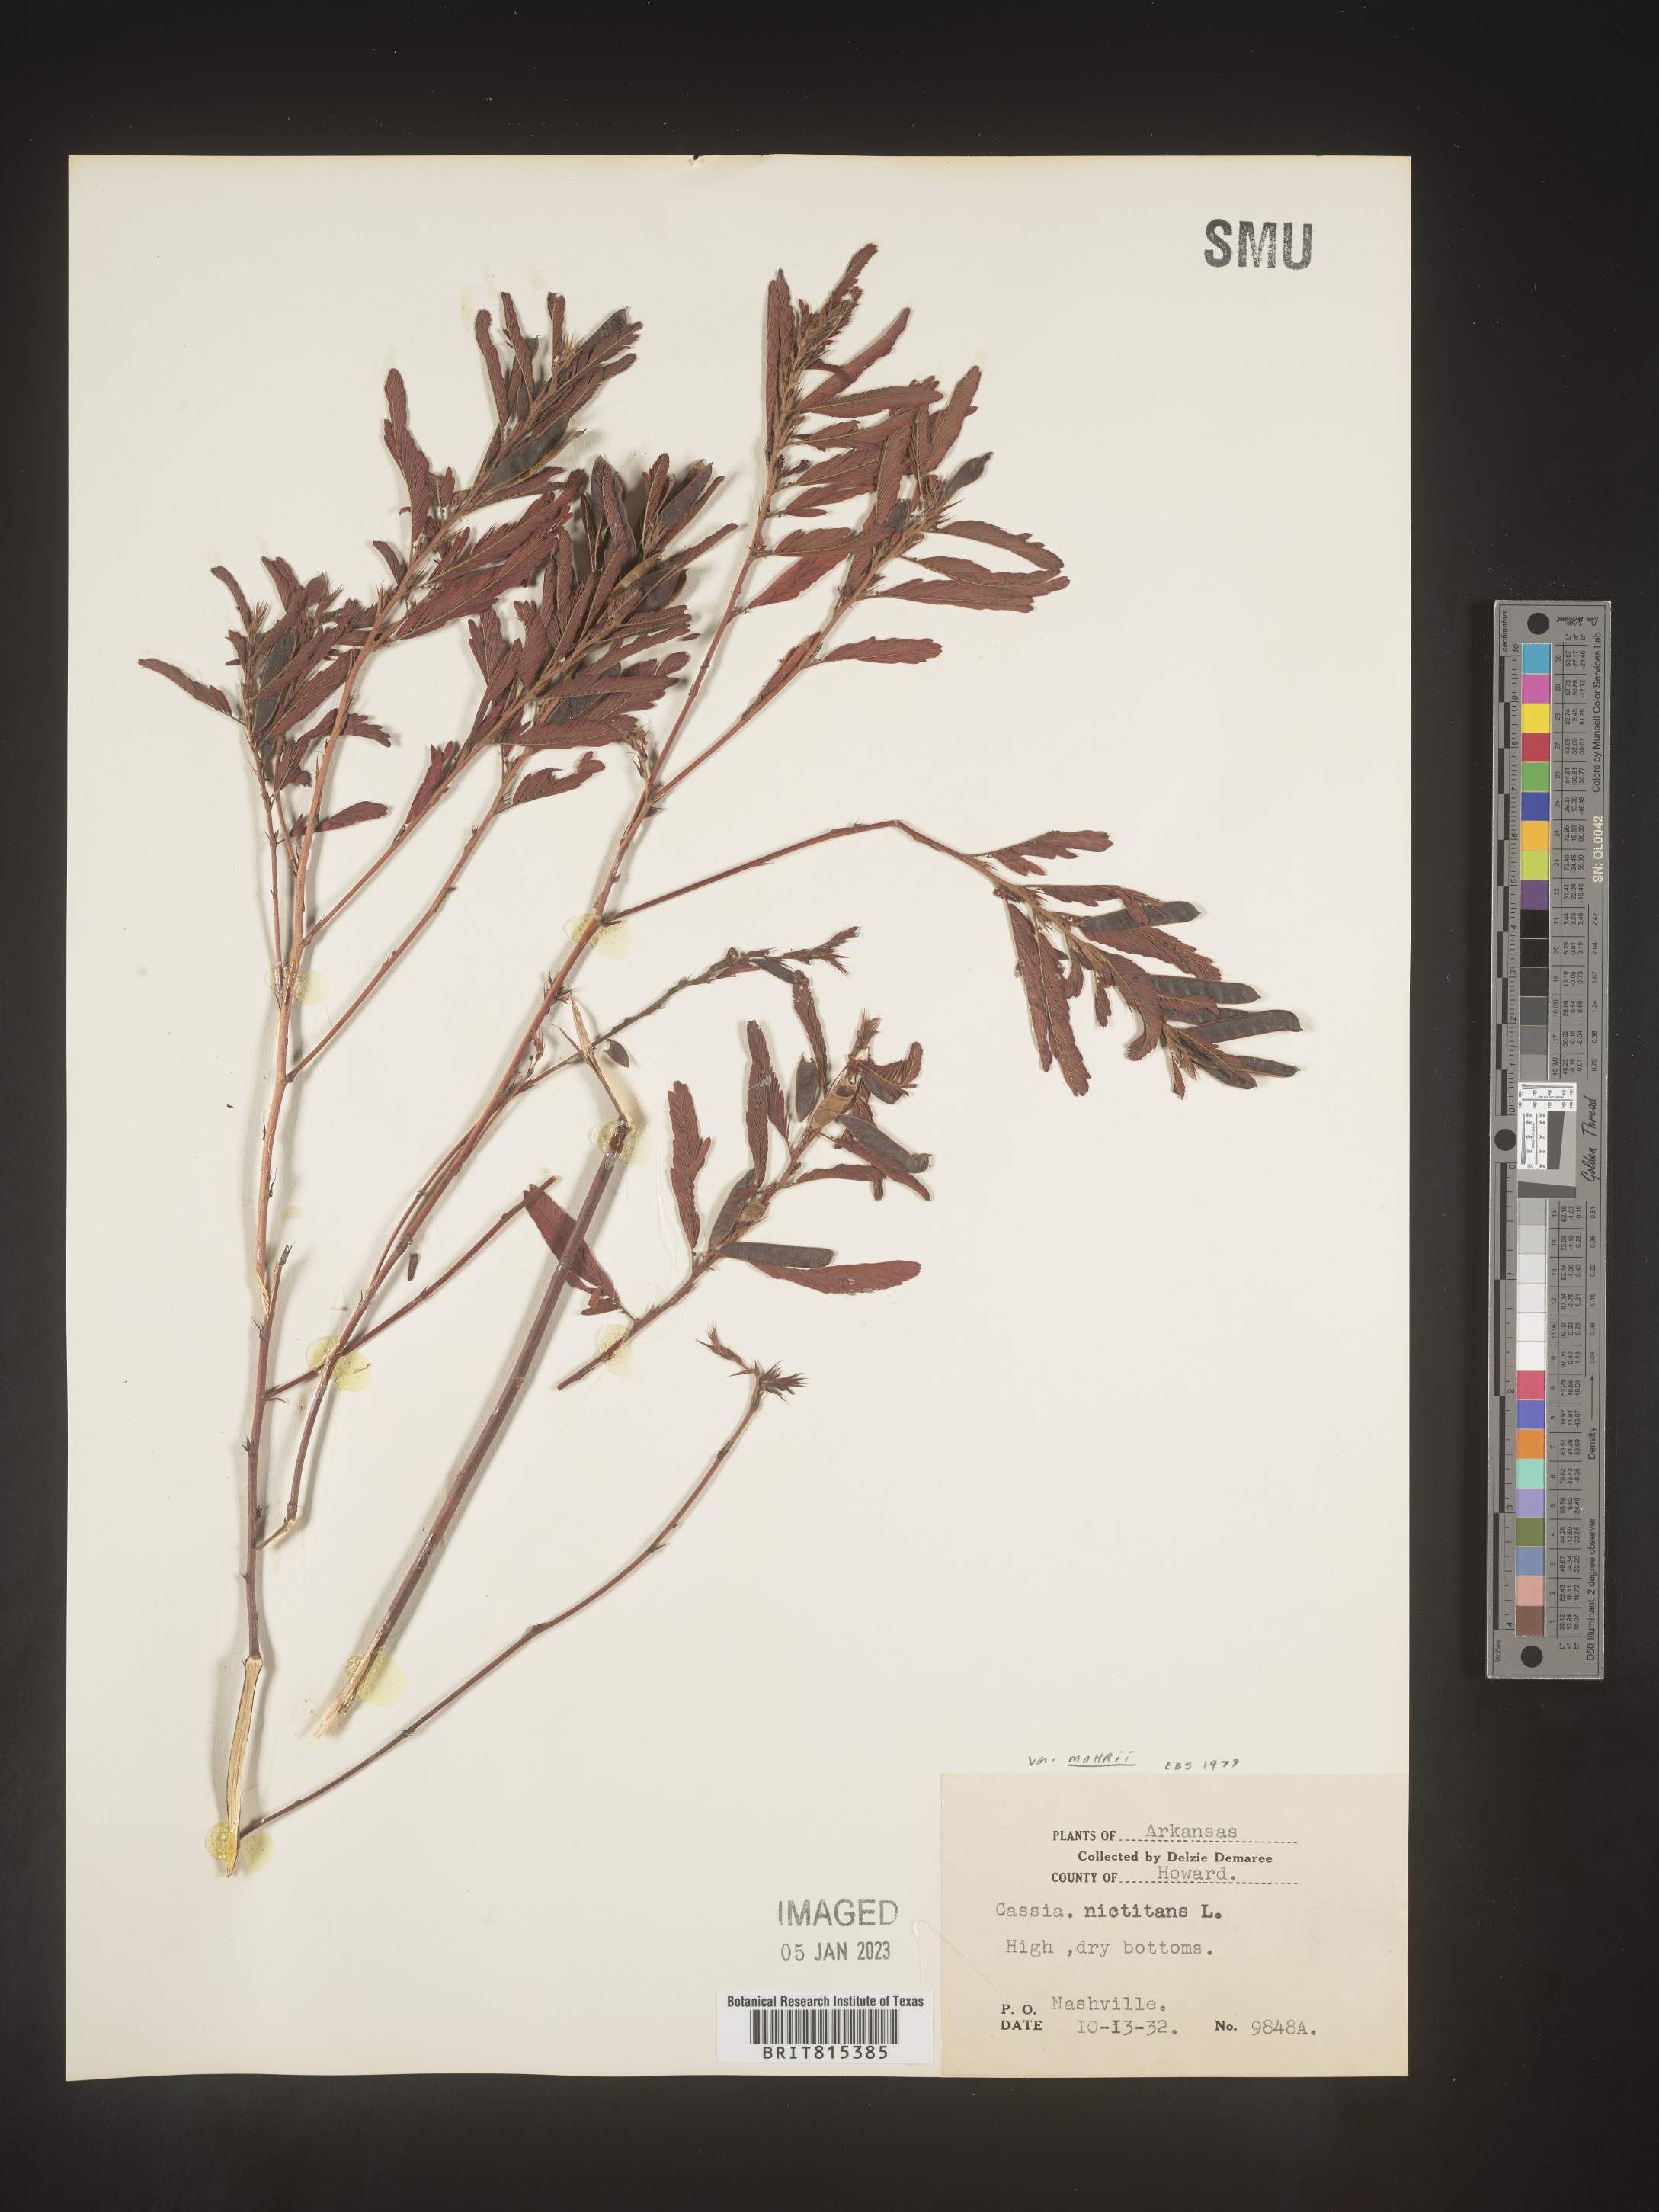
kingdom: Plantae
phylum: Tracheophyta
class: Magnoliopsida
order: Fabales
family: Fabaceae
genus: Chamaecrista
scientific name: Chamaecrista nictitans
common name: Sensitive cassia
